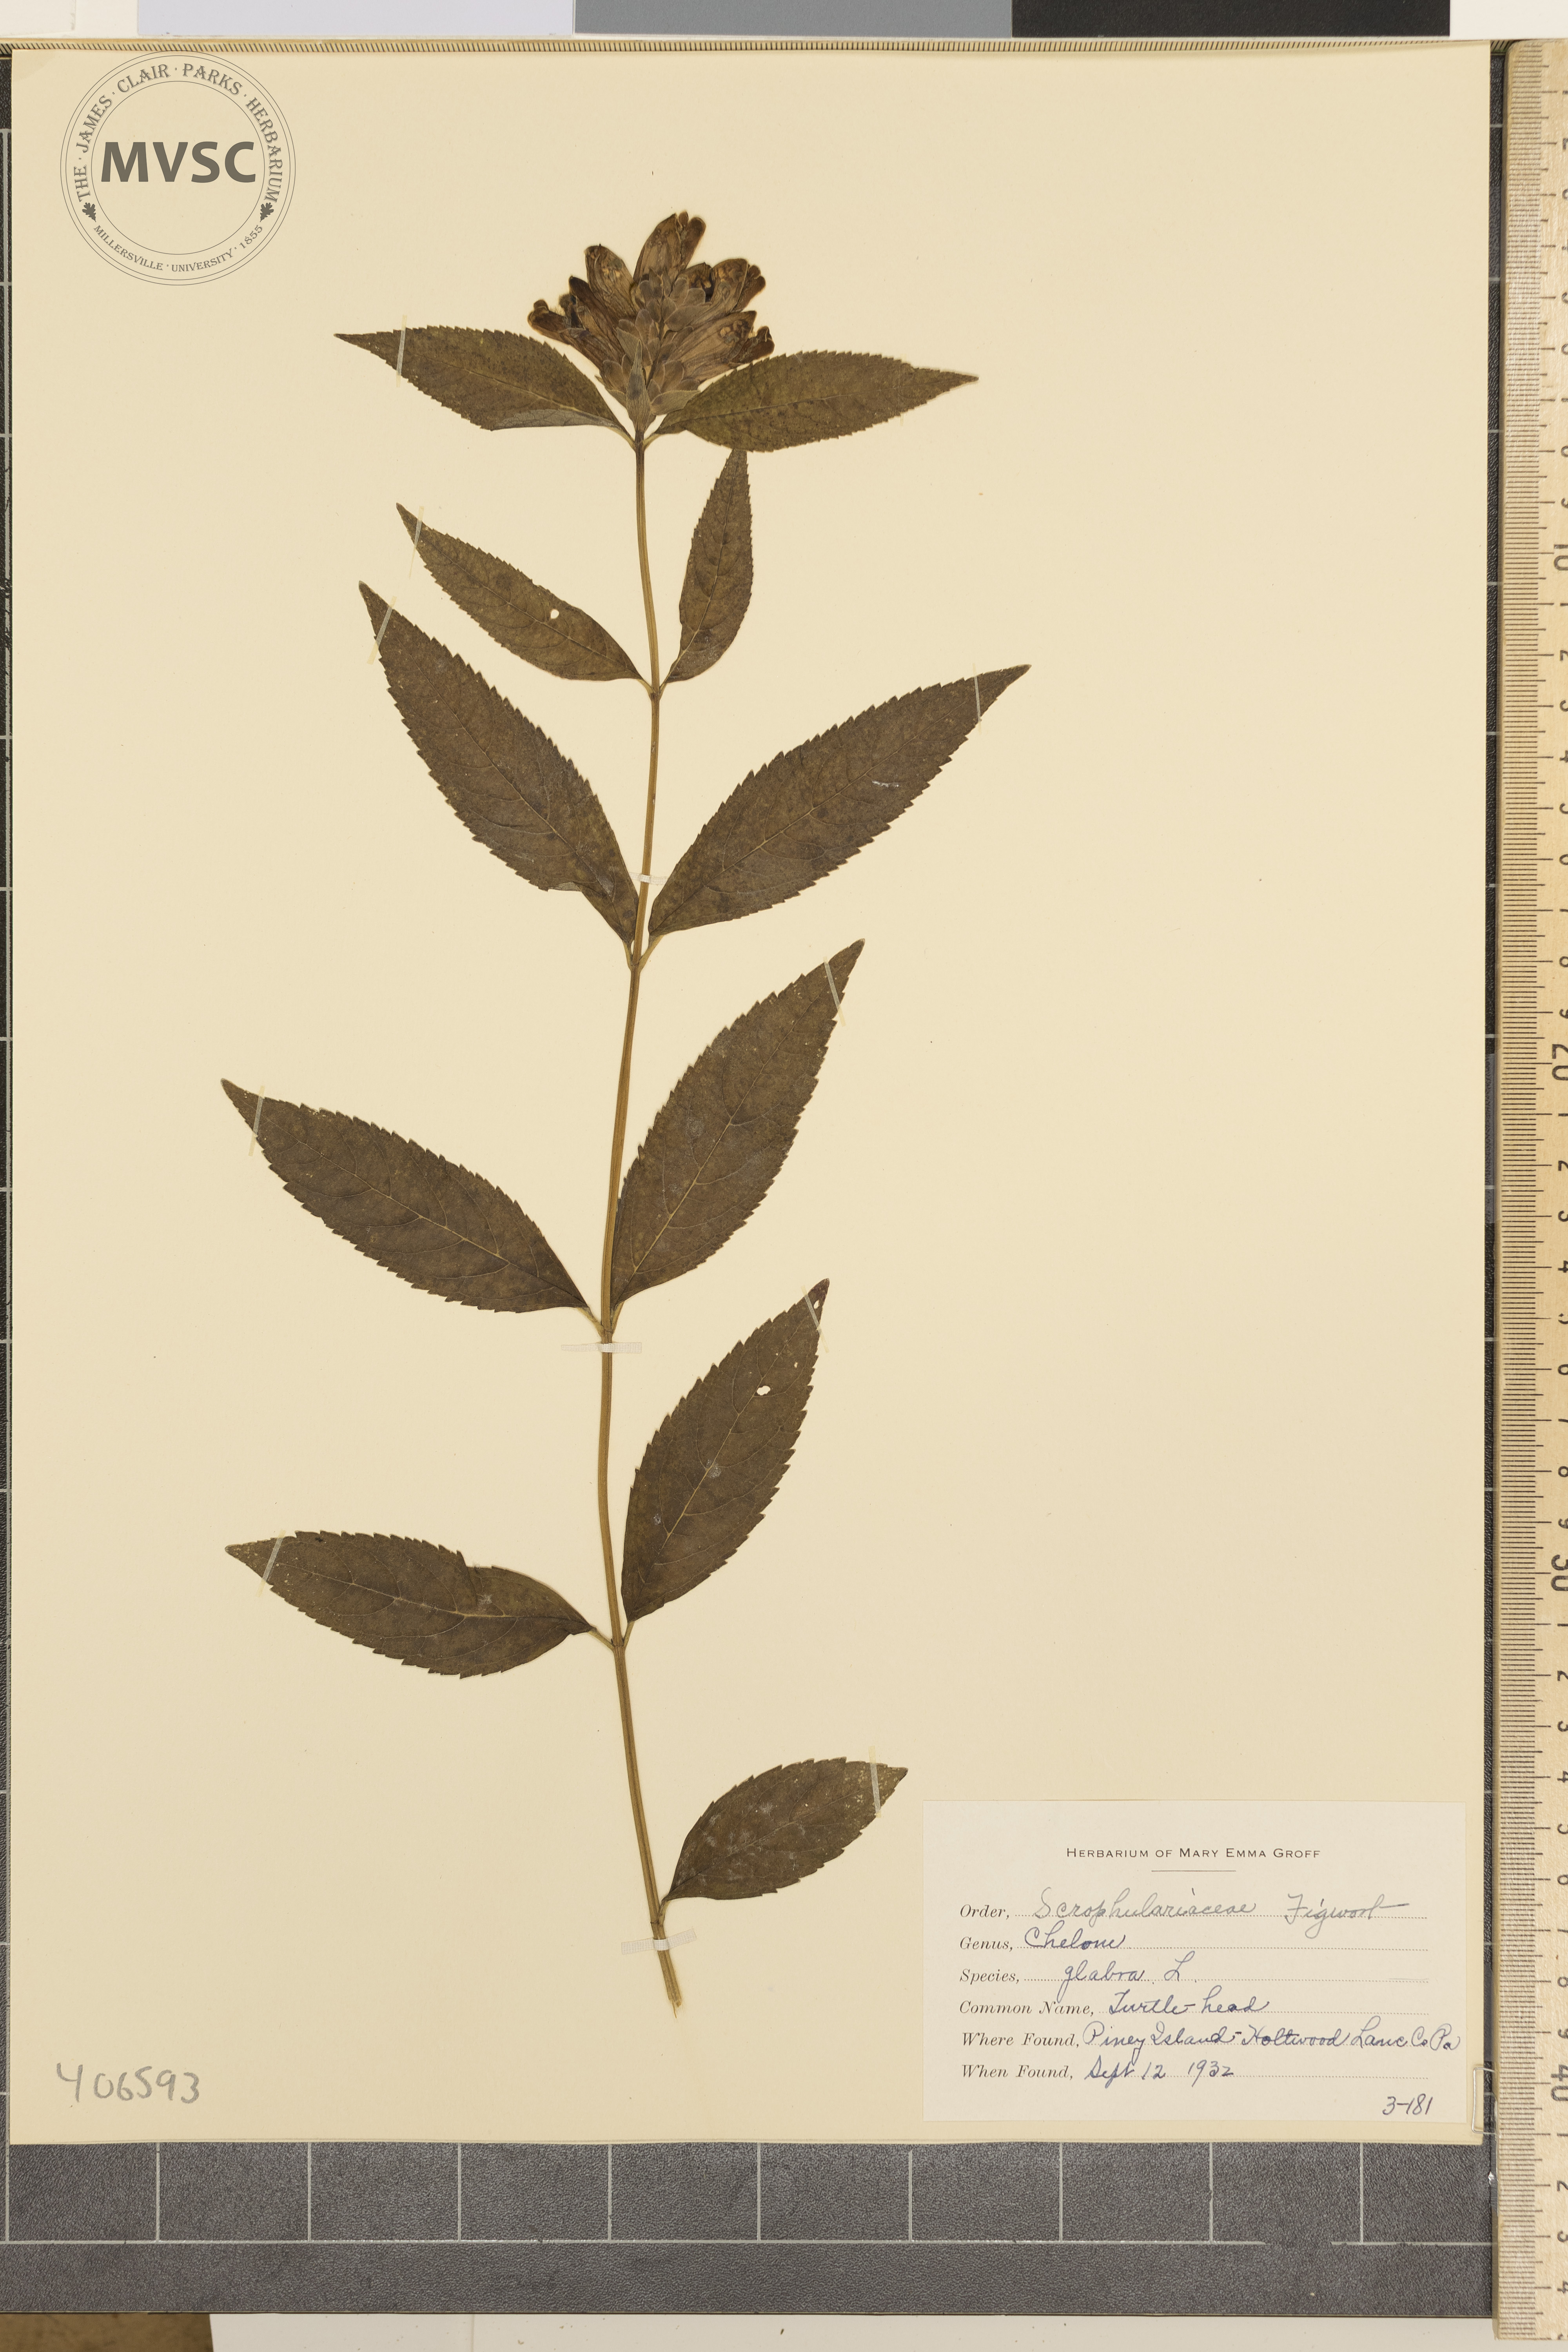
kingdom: Plantae
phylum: Tracheophyta
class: Magnoliopsida
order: Lamiales
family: Plantaginaceae
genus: Chelone
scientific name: Chelone glabra
